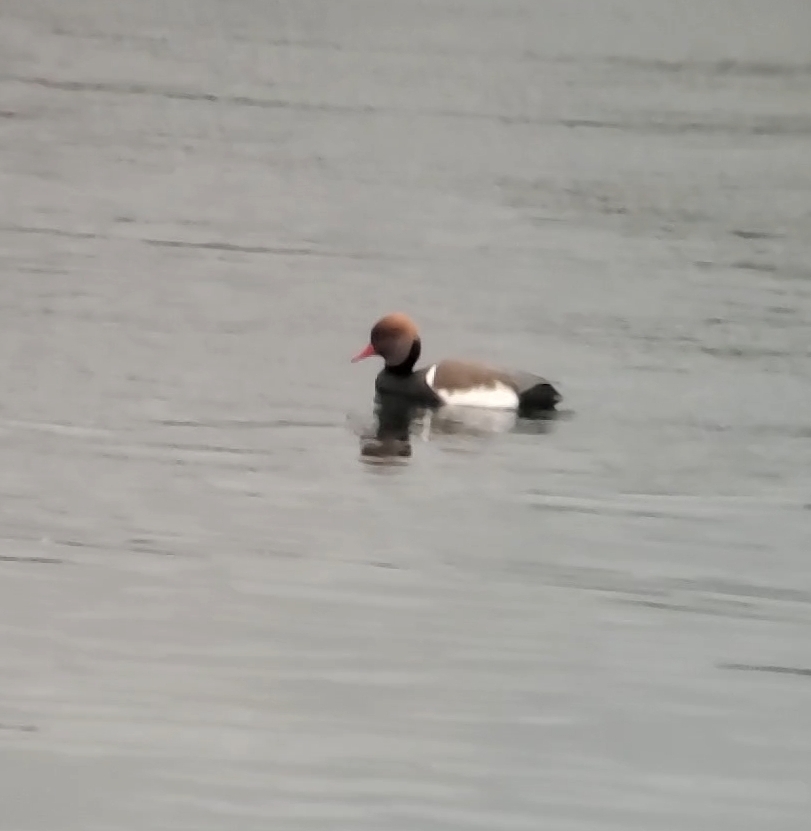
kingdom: Animalia
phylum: Chordata
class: Aves
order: Anseriformes
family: Anatidae
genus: Netta
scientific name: Netta rufina
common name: Rødhovedet and
